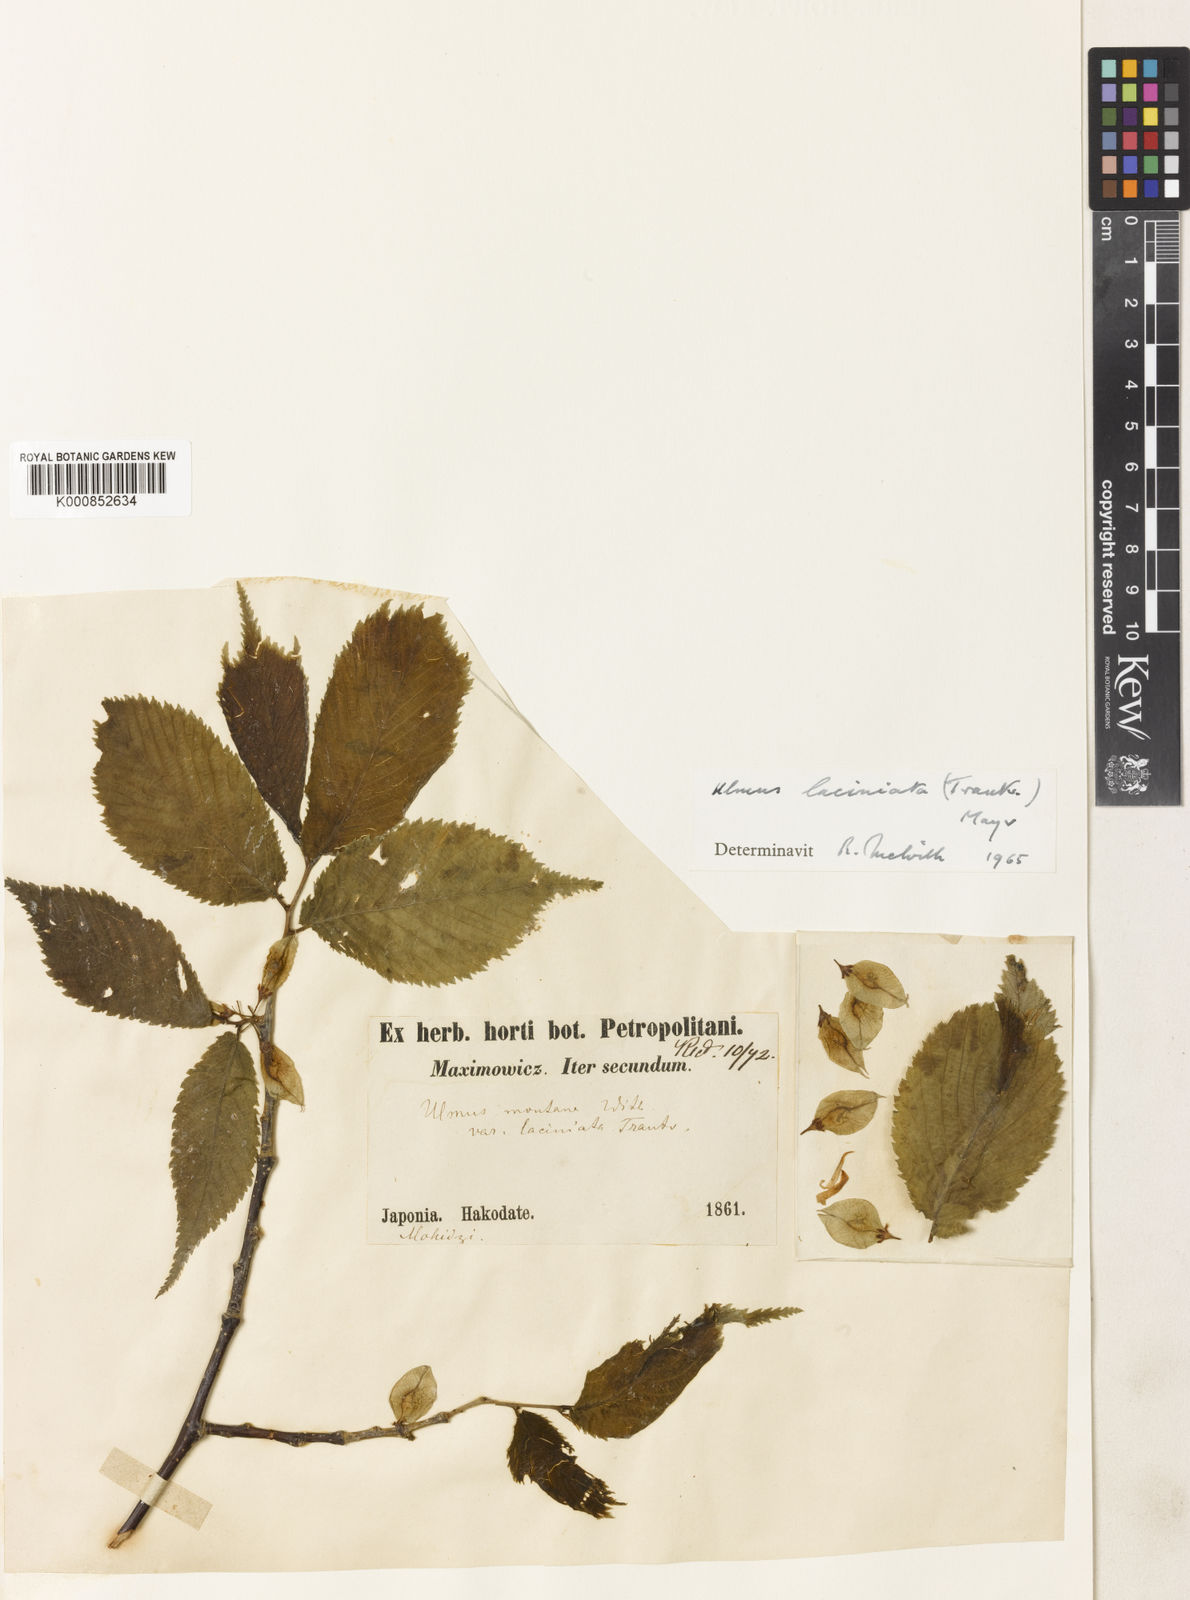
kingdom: Plantae
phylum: Tracheophyta
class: Magnoliopsida
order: Rosales
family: Ulmaceae
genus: Ulmus
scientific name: Ulmus parvifolia
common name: Chinese elm
